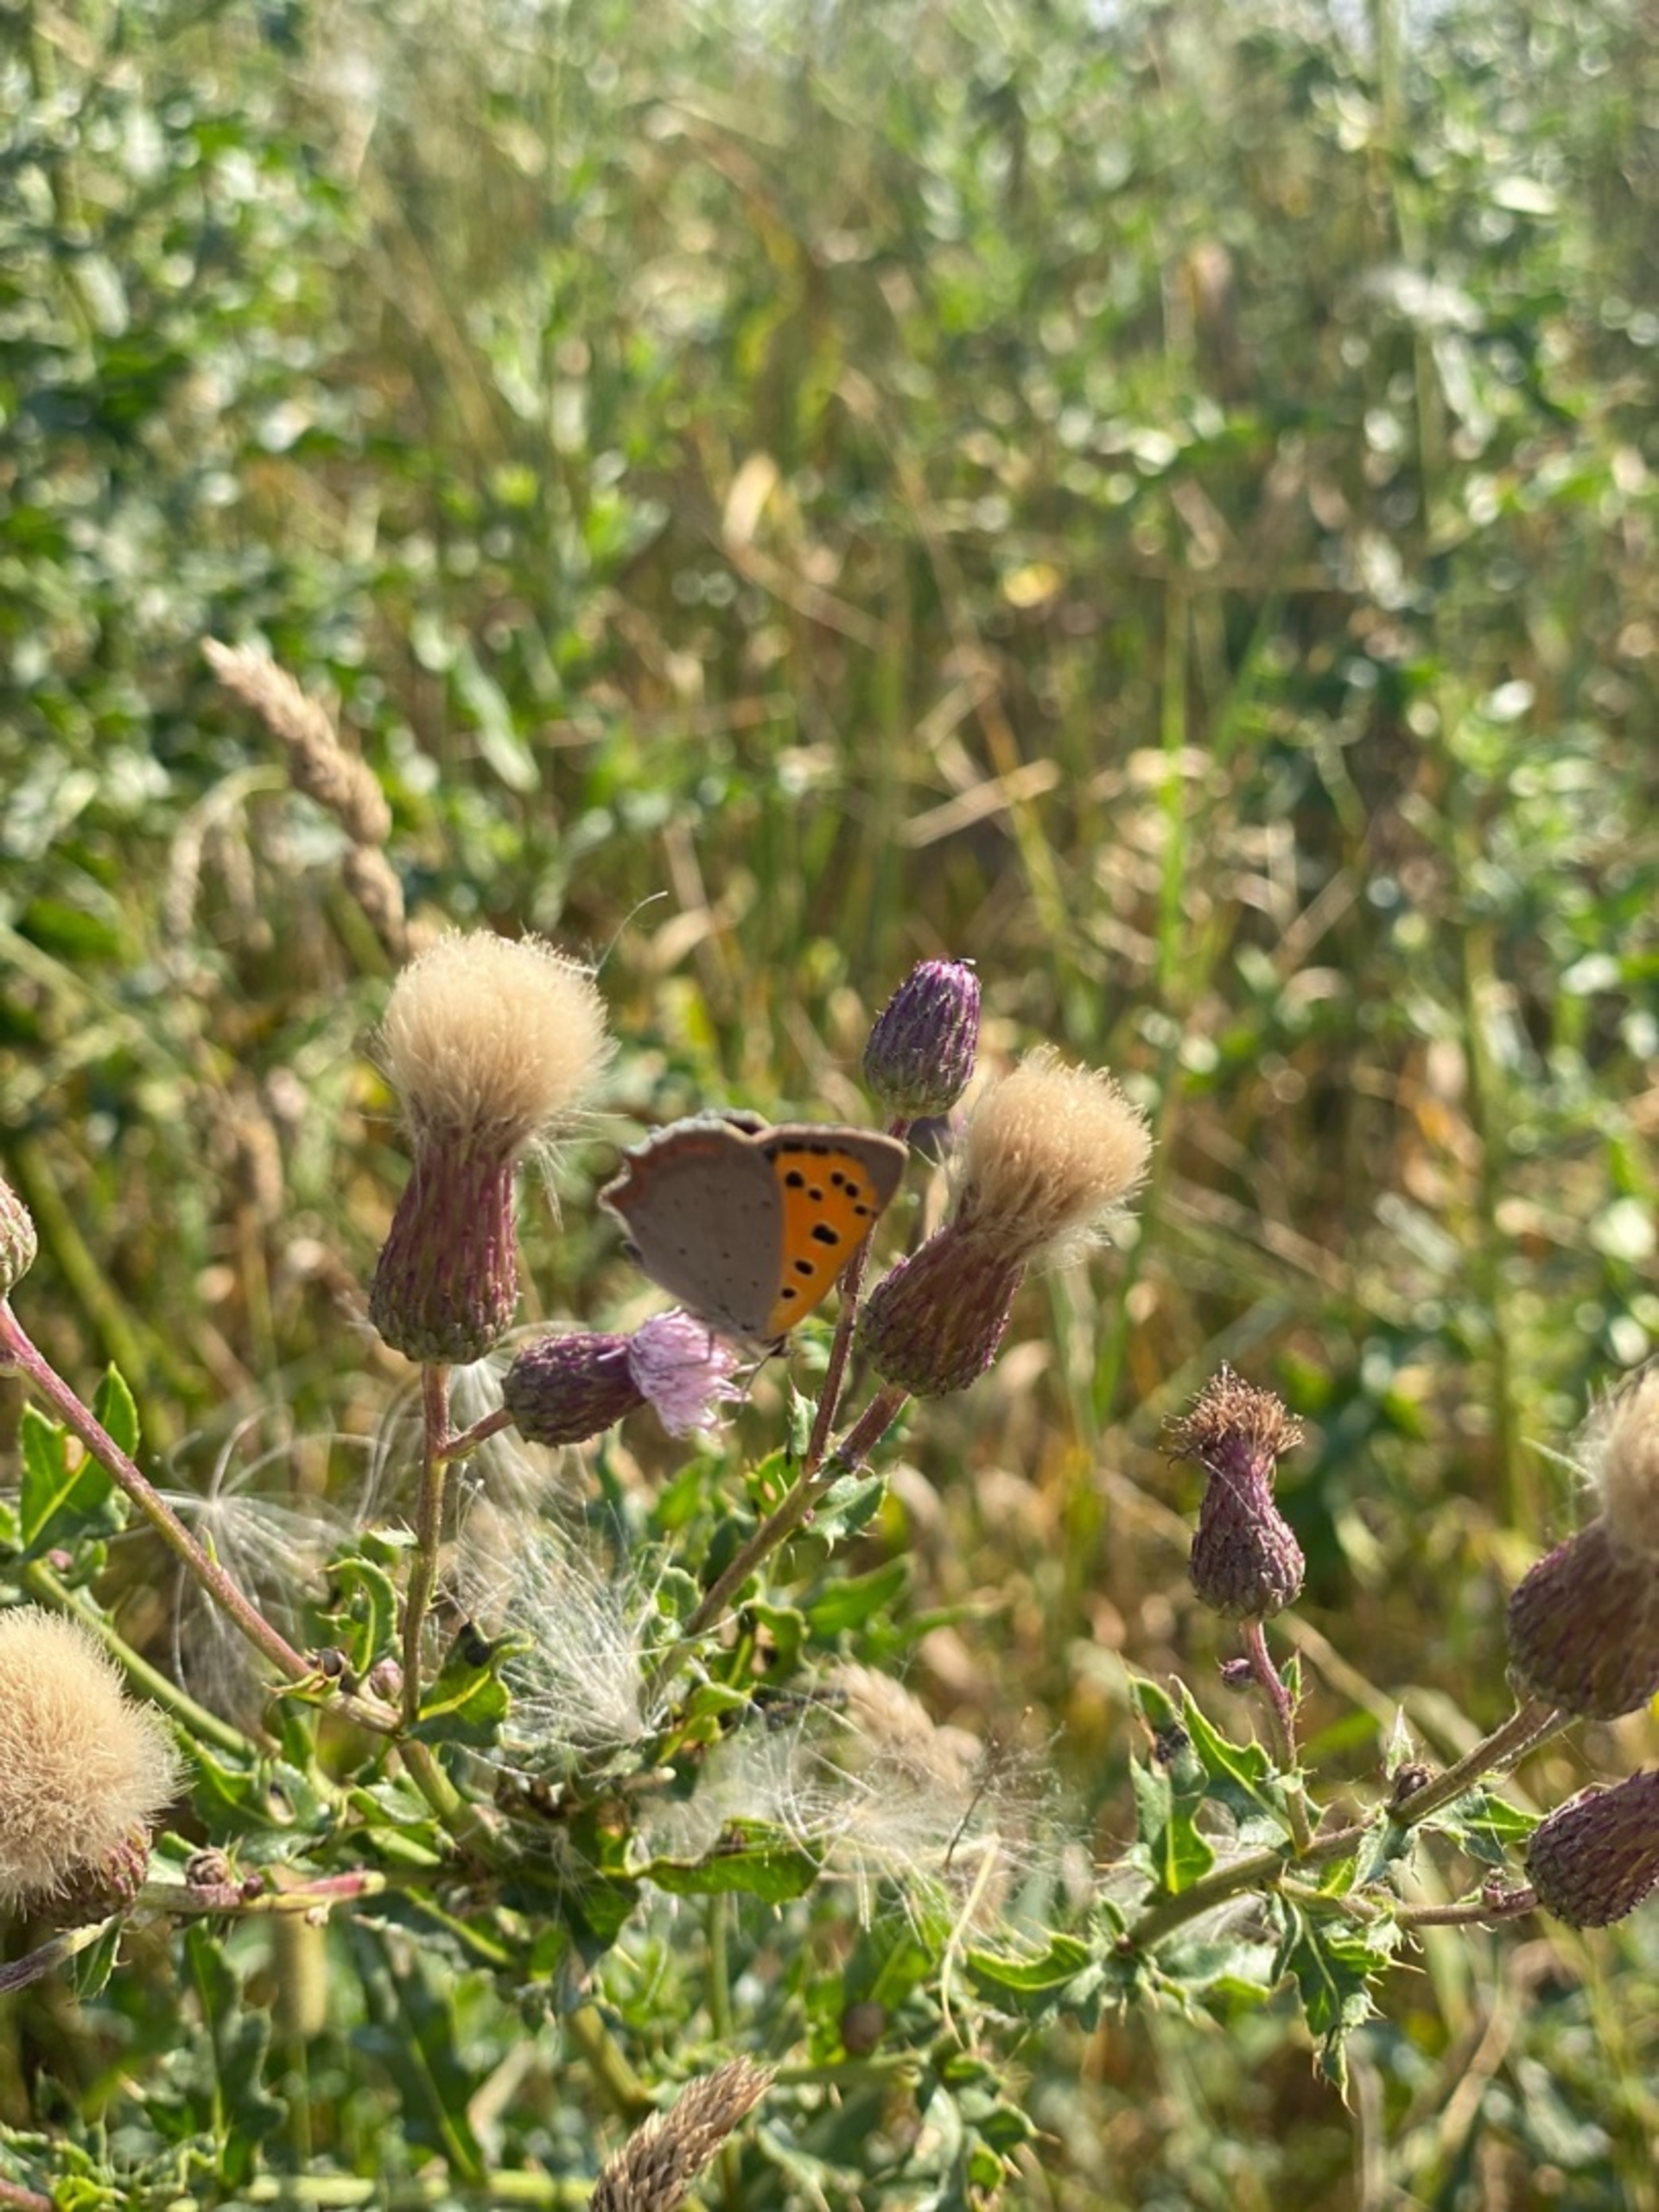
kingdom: Animalia
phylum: Arthropoda
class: Insecta
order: Lepidoptera
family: Lycaenidae
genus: Lycaena
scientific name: Lycaena phlaeas
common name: Lille ildfugl
